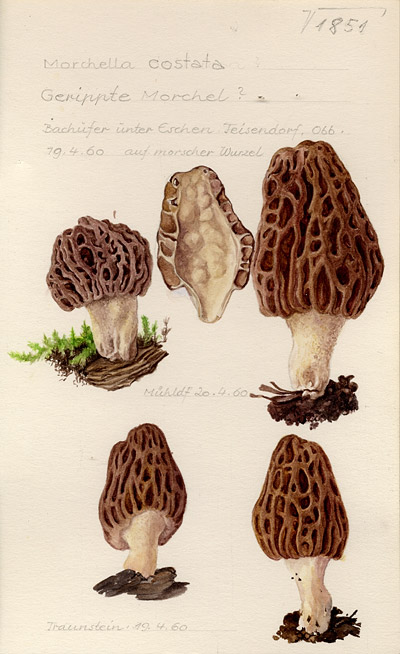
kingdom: Fungi
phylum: Ascomycota
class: Pezizomycetes
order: Pezizales
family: Morchellaceae
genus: Morchella
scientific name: Morchella costata
